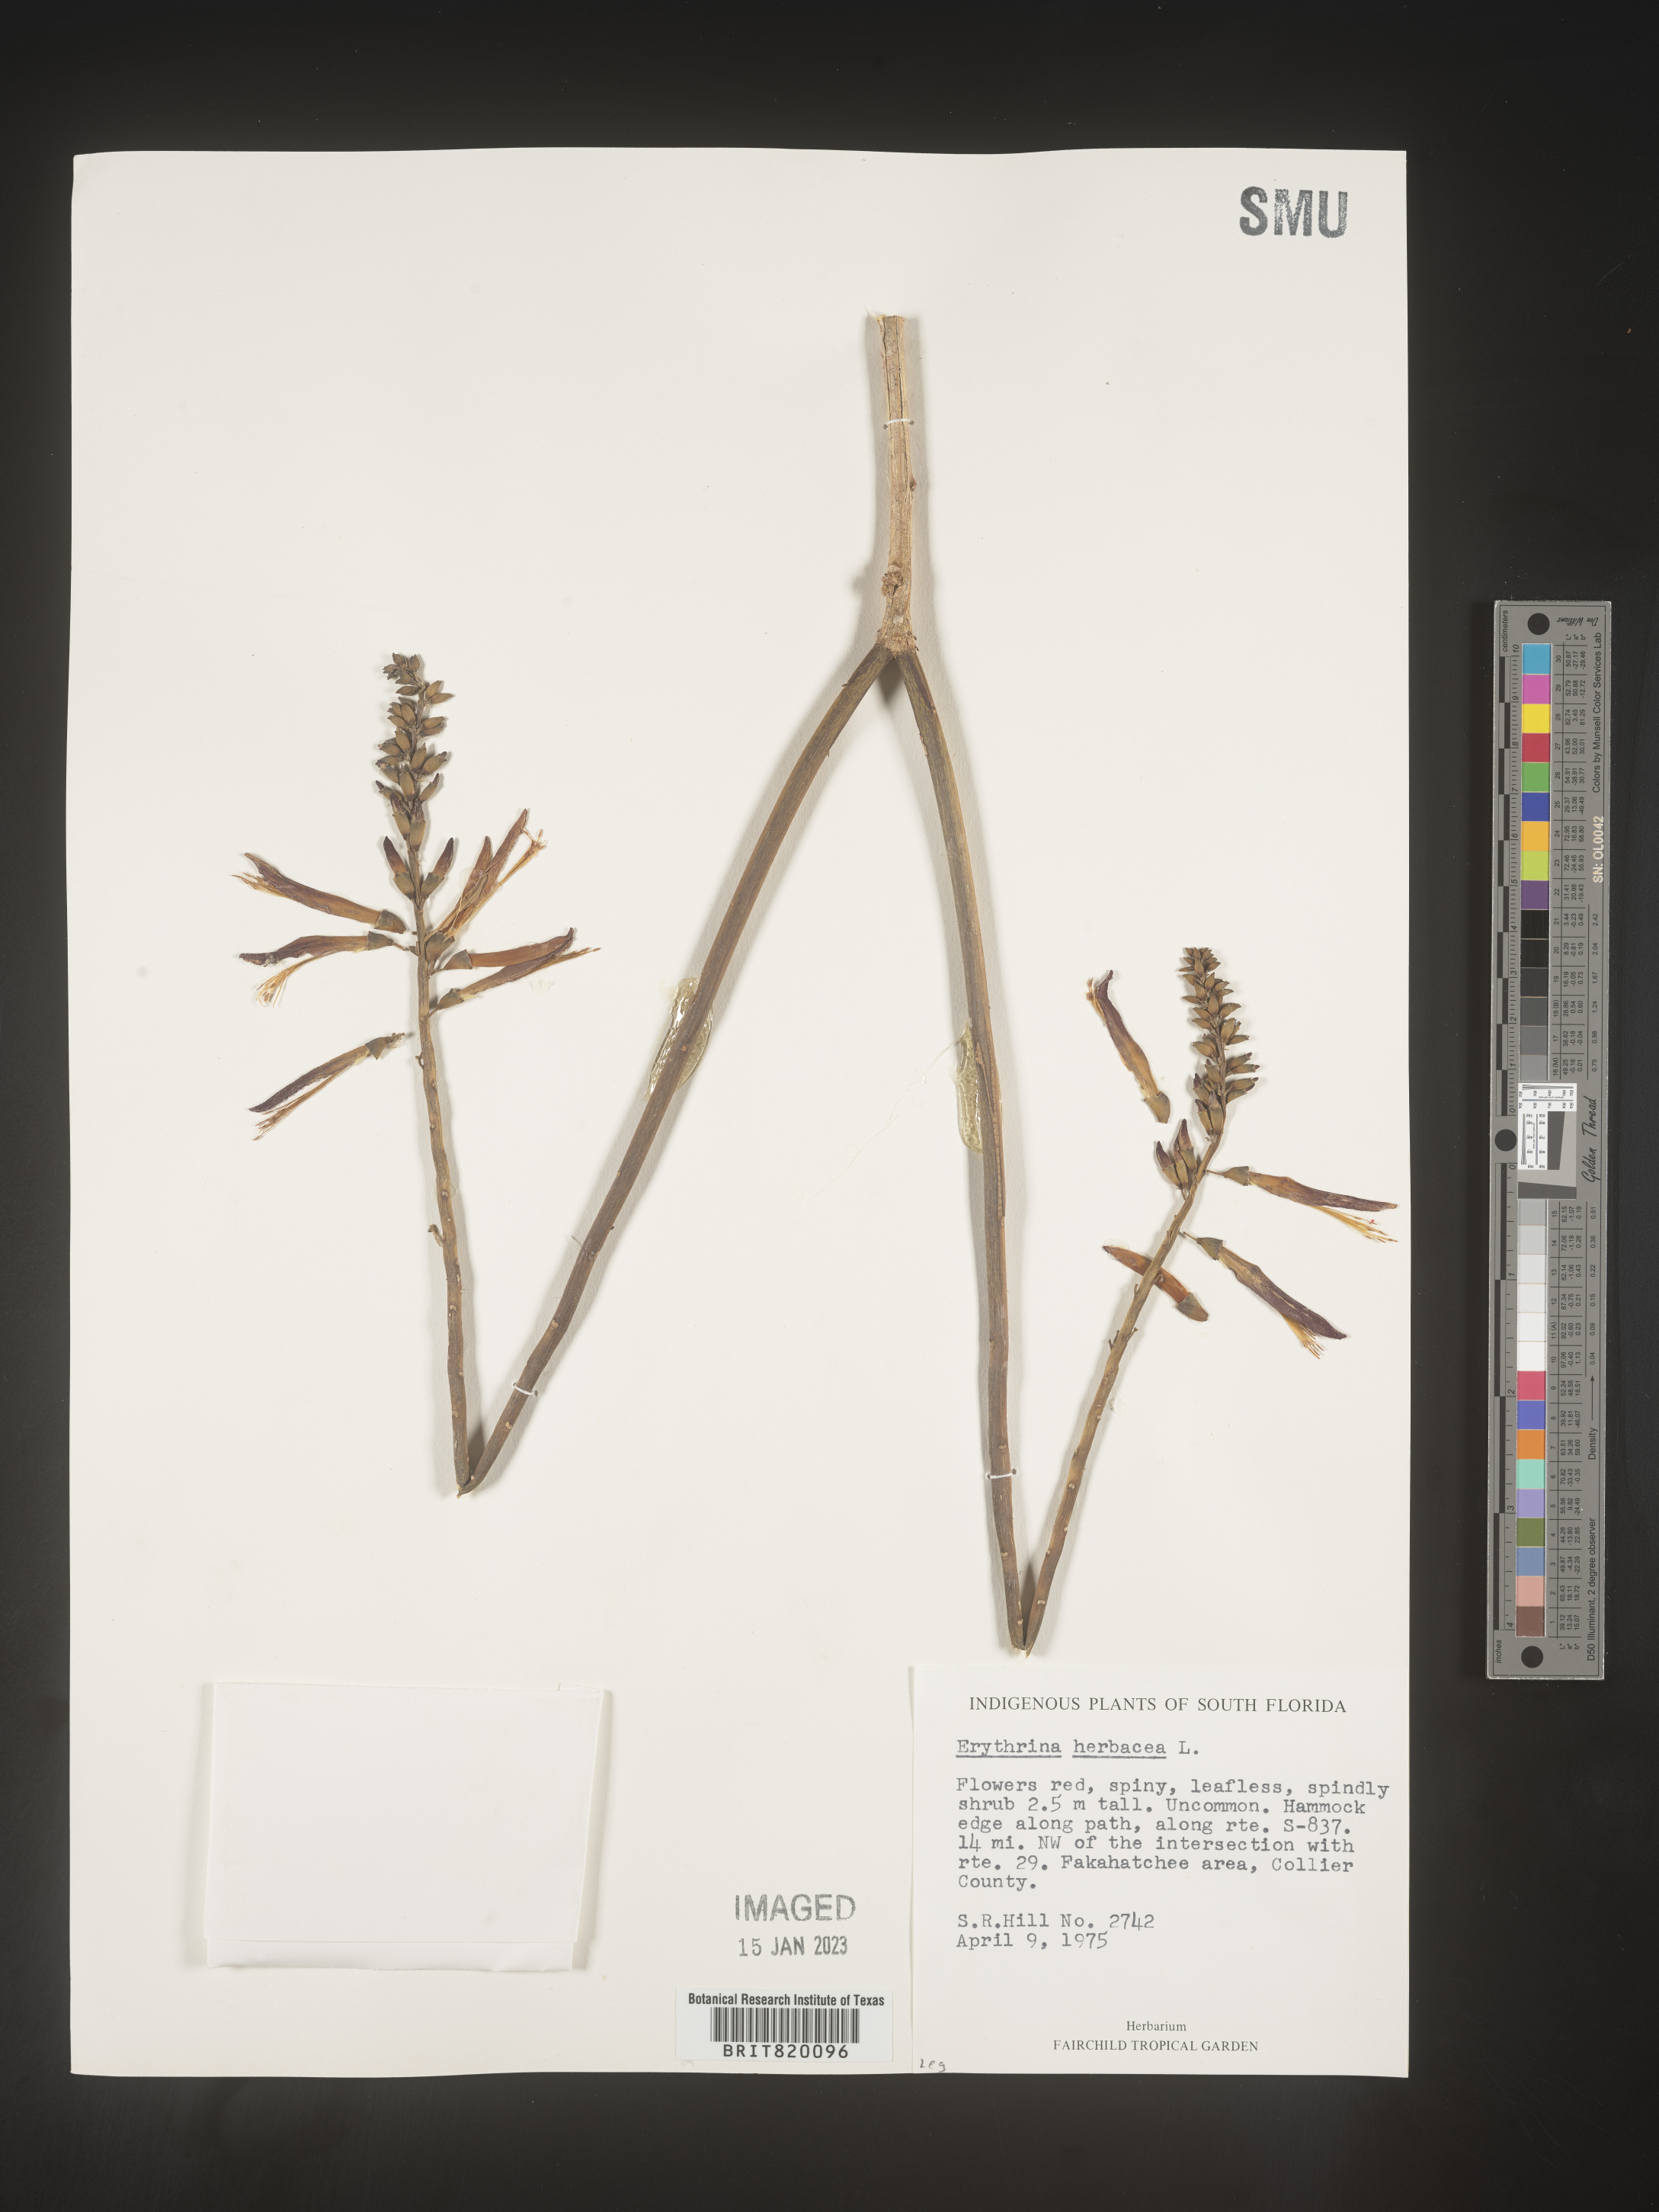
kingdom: Plantae
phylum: Tracheophyta
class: Magnoliopsida
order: Fabales
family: Fabaceae
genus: Erythrina
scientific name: Erythrina herbacea
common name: Coral-bean
